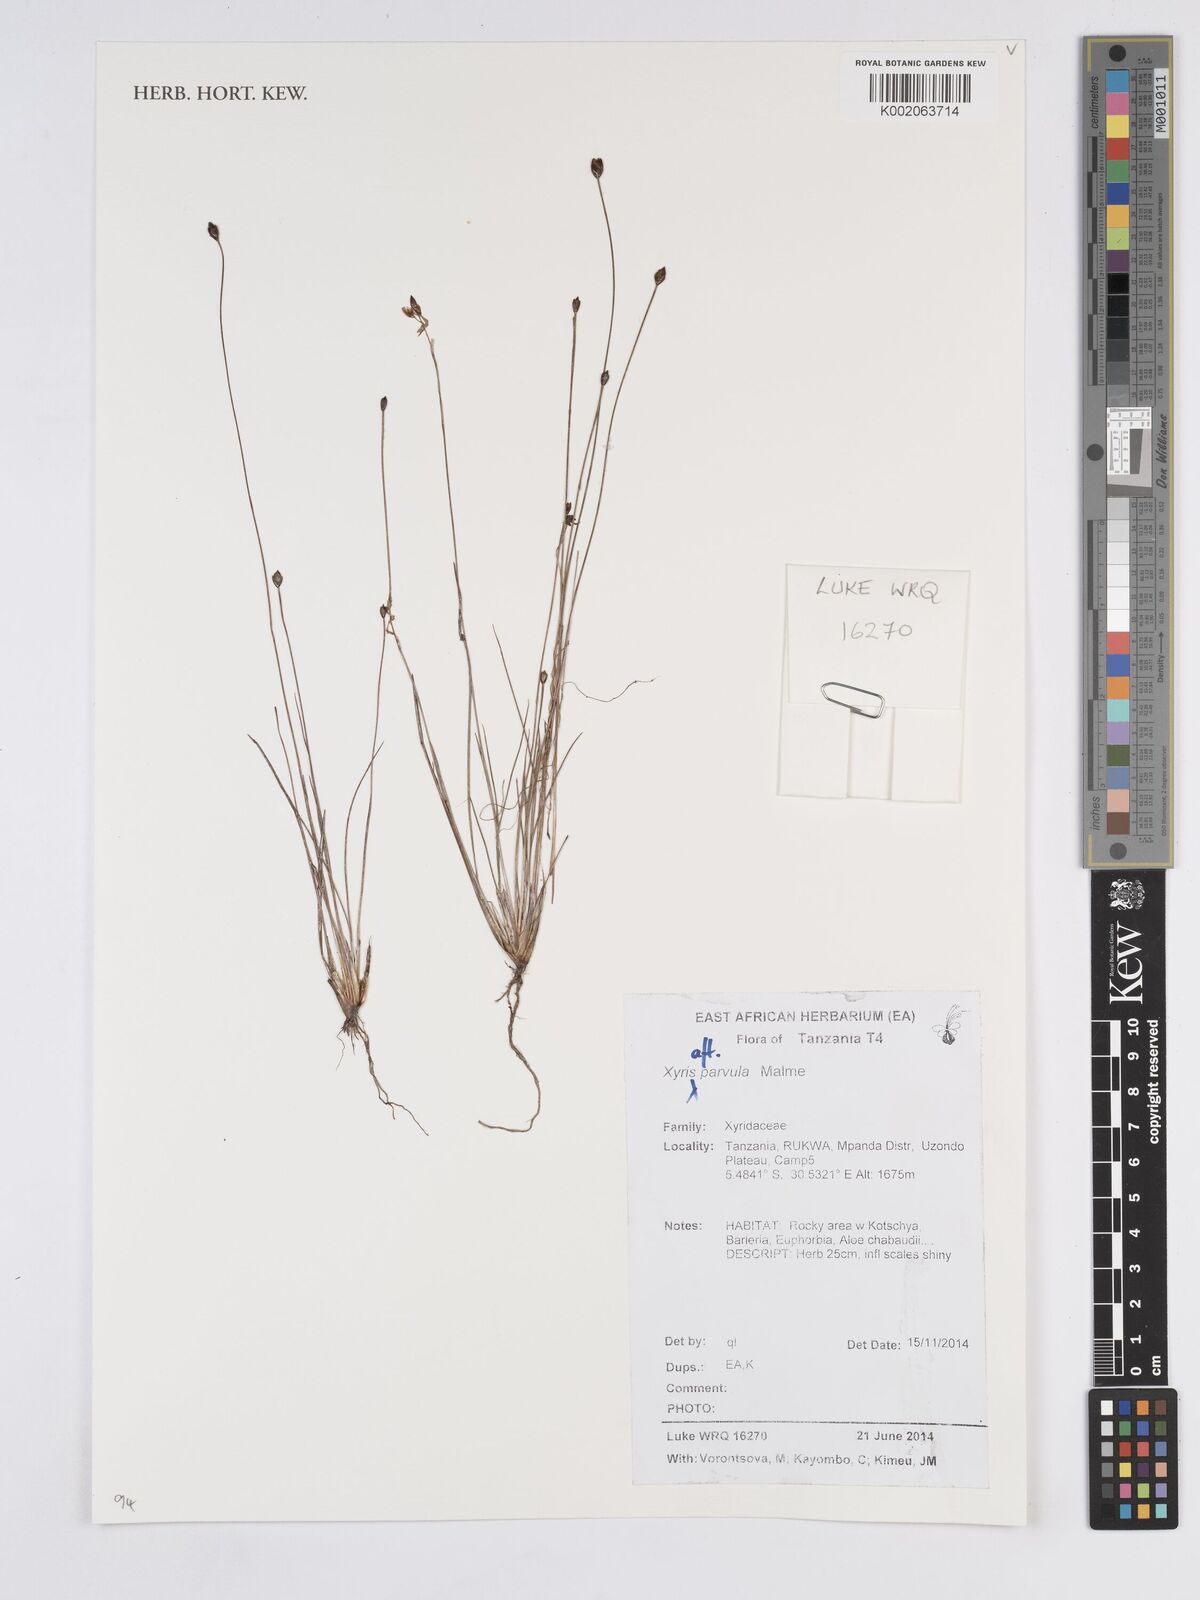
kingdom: Plantae
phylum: Tracheophyta
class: Liliopsida
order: Poales
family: Xyridaceae
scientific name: Xyridaceae
